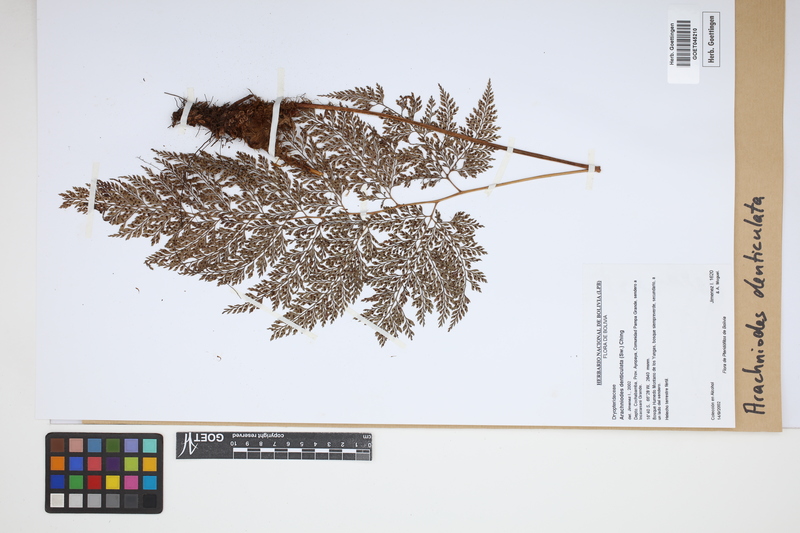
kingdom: Plantae
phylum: Tracheophyta
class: Polypodiopsida
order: Polypodiales
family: Dryopteridaceae
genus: Arachniodes
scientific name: Arachniodes denticulata
